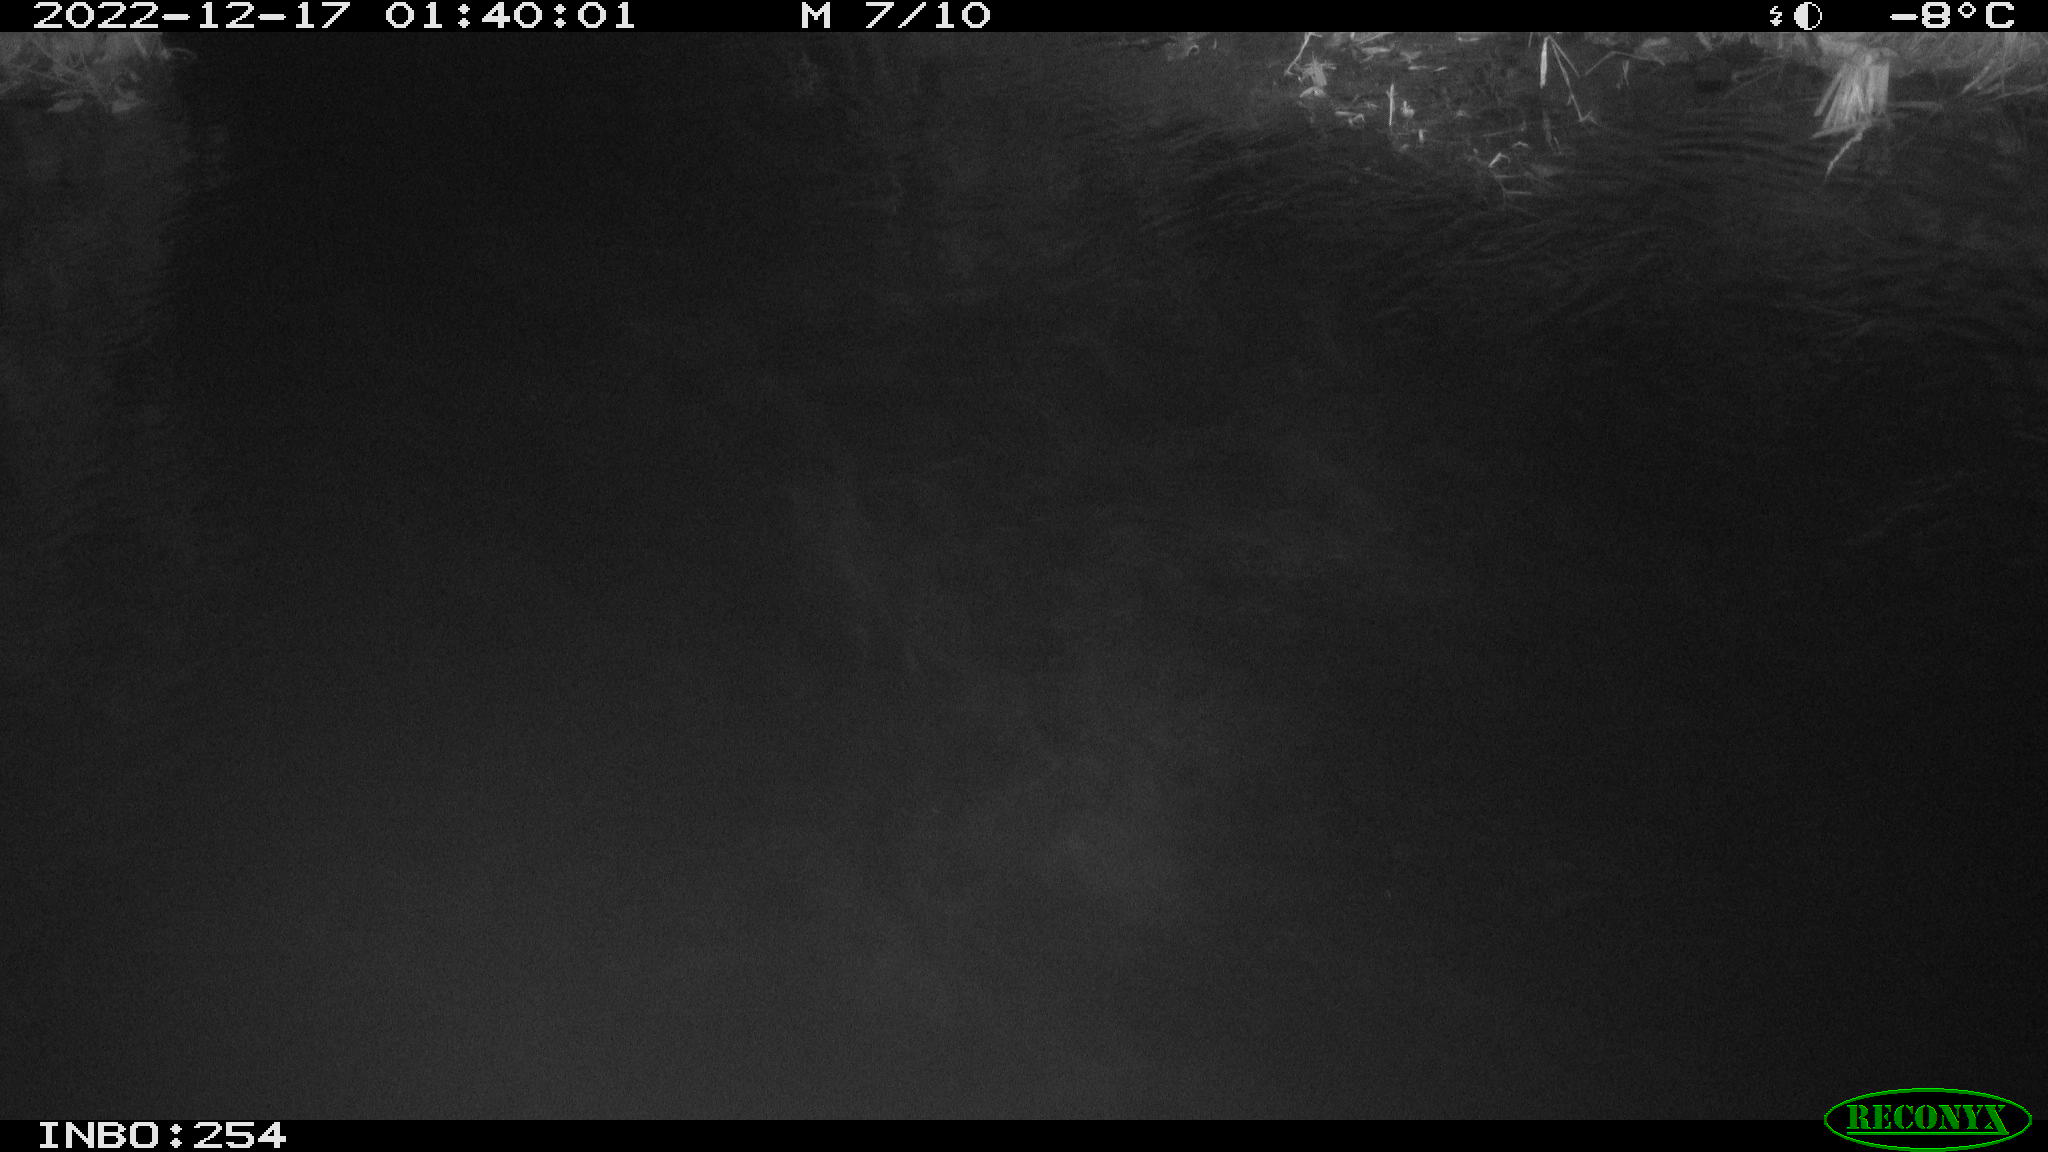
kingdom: Animalia
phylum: Chordata
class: Aves
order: Anseriformes
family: Anatidae
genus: Anas
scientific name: Anas
